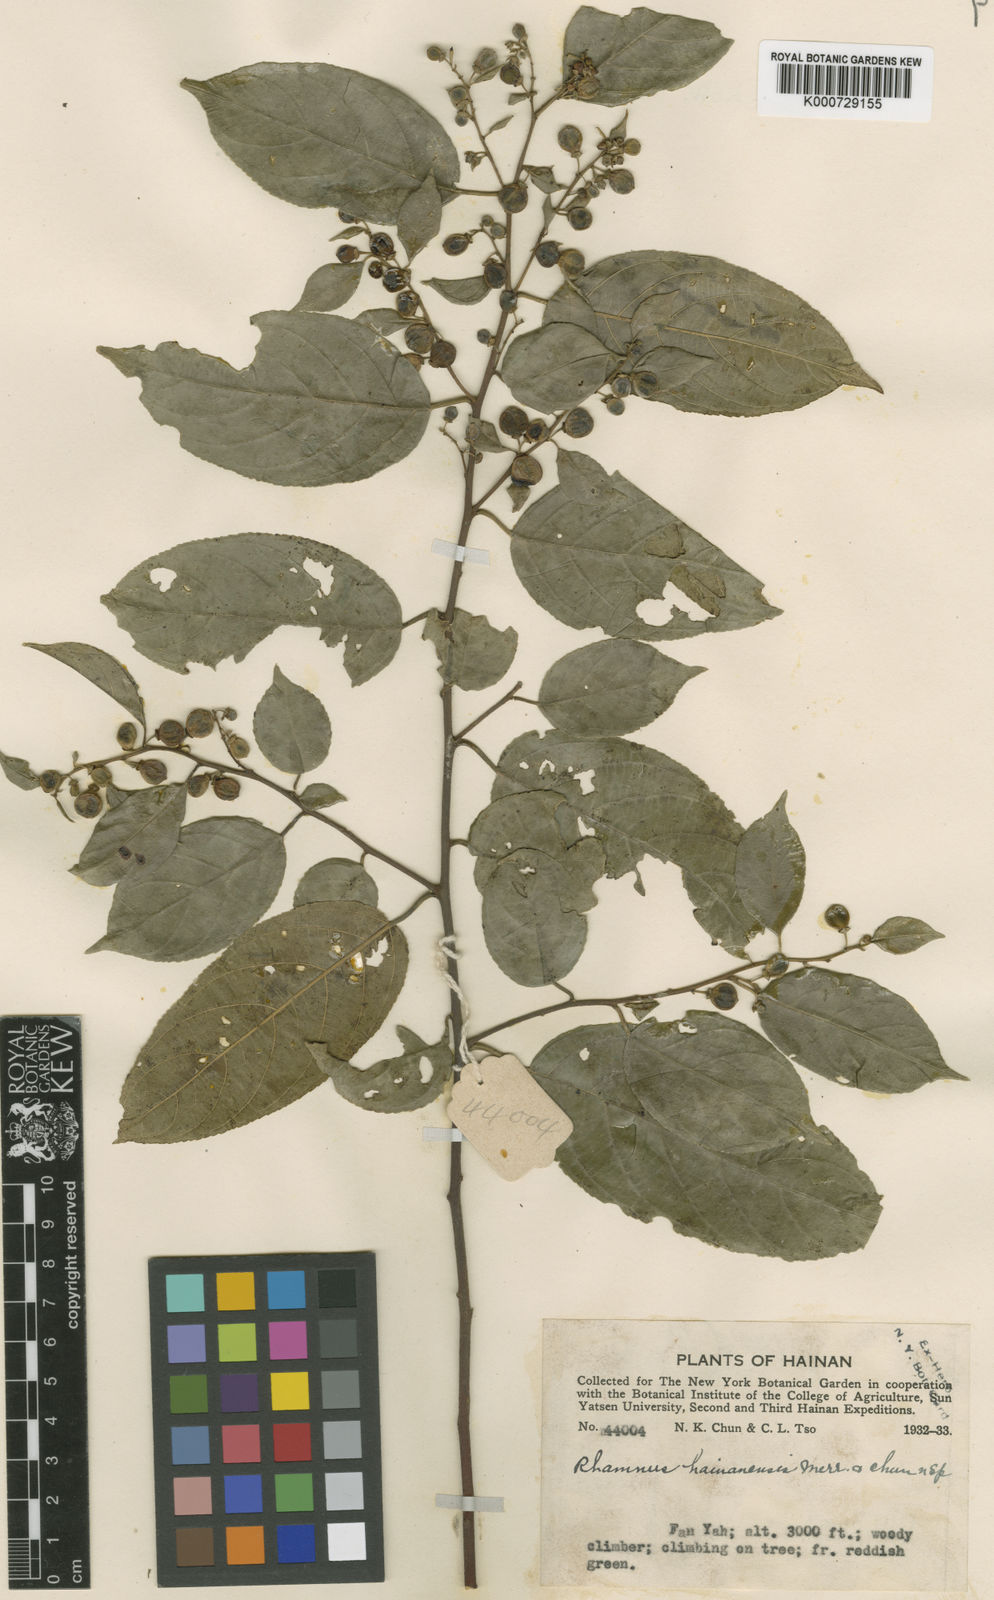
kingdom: Plantae
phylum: Tracheophyta
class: Magnoliopsida
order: Rosales
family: Rhamnaceae
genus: Rhamnus
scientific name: Rhamnus hainanensis
